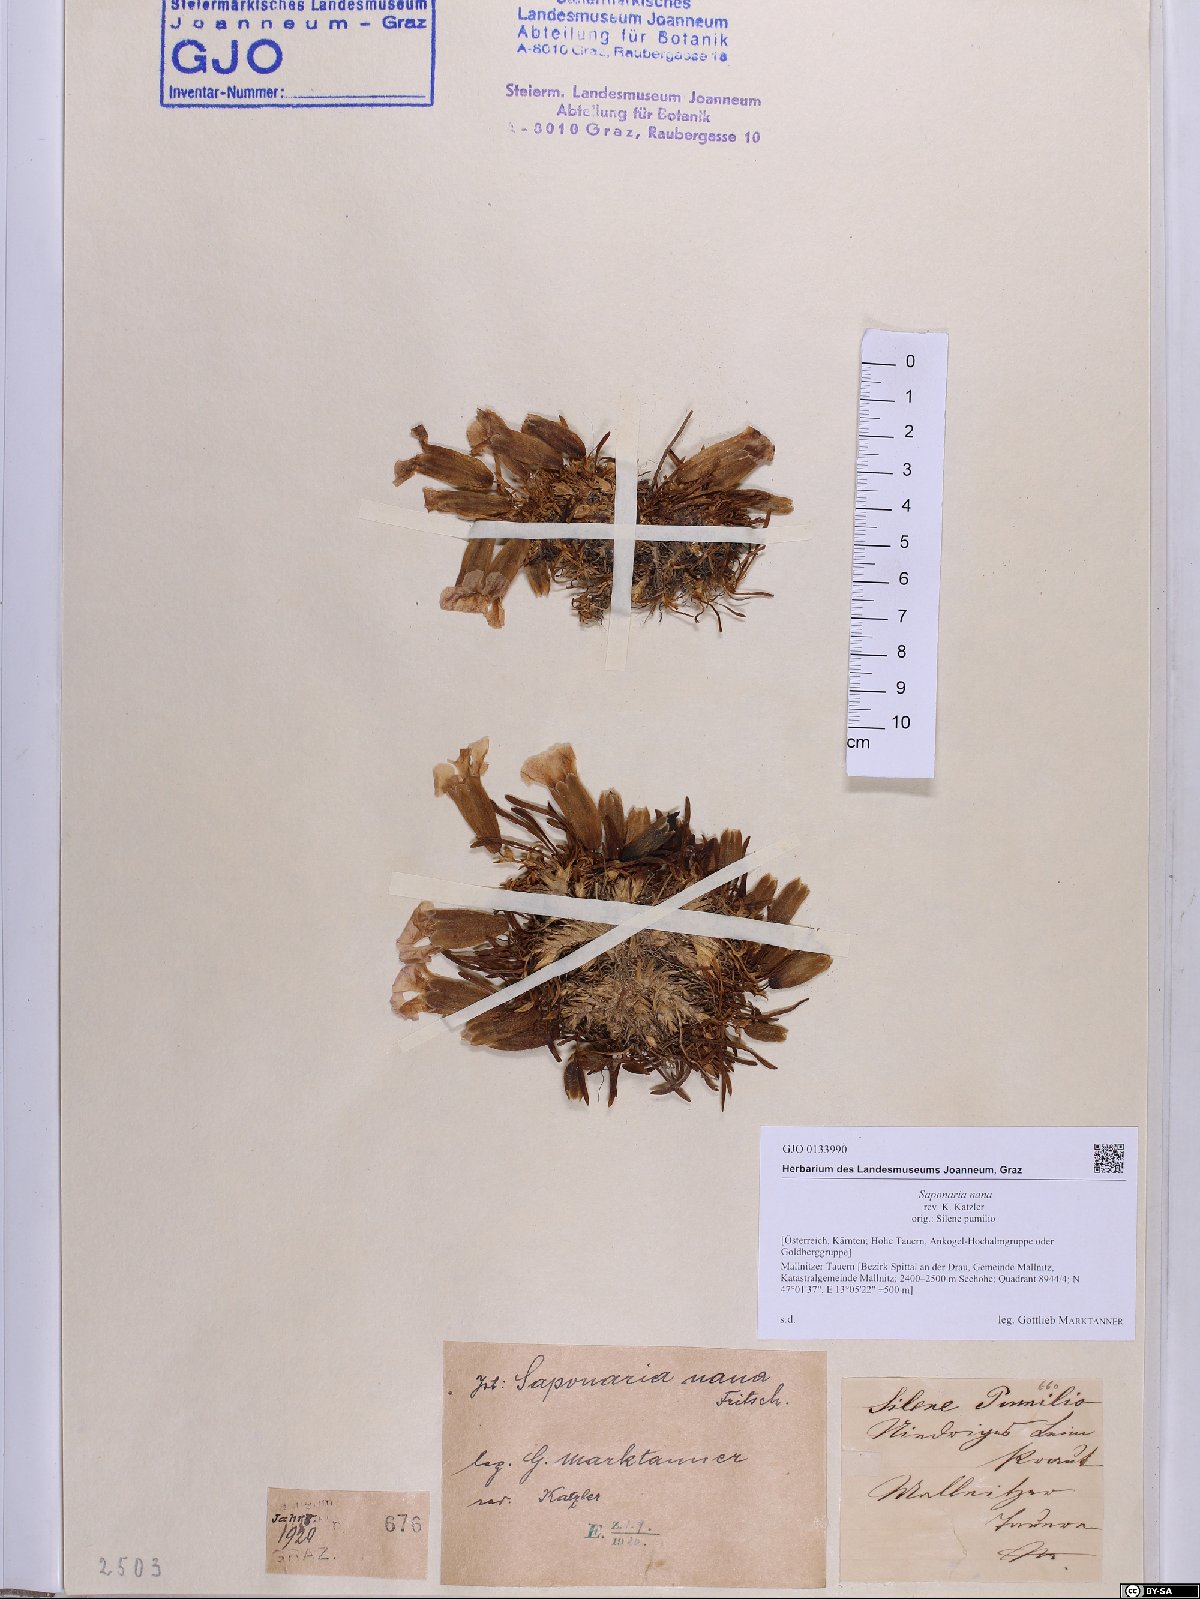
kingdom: Plantae
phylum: Tracheophyta
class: Magnoliopsida
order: Caryophyllales
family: Caryophyllaceae
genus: Saponaria
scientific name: Saponaria pumila
